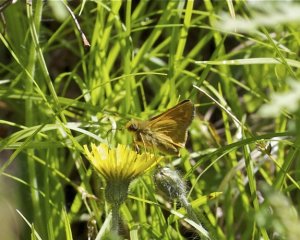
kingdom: Animalia
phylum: Arthropoda
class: Insecta
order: Lepidoptera
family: Hesperiidae
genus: Hesperia
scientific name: Hesperia sassacus
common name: Sassacus Skipper
